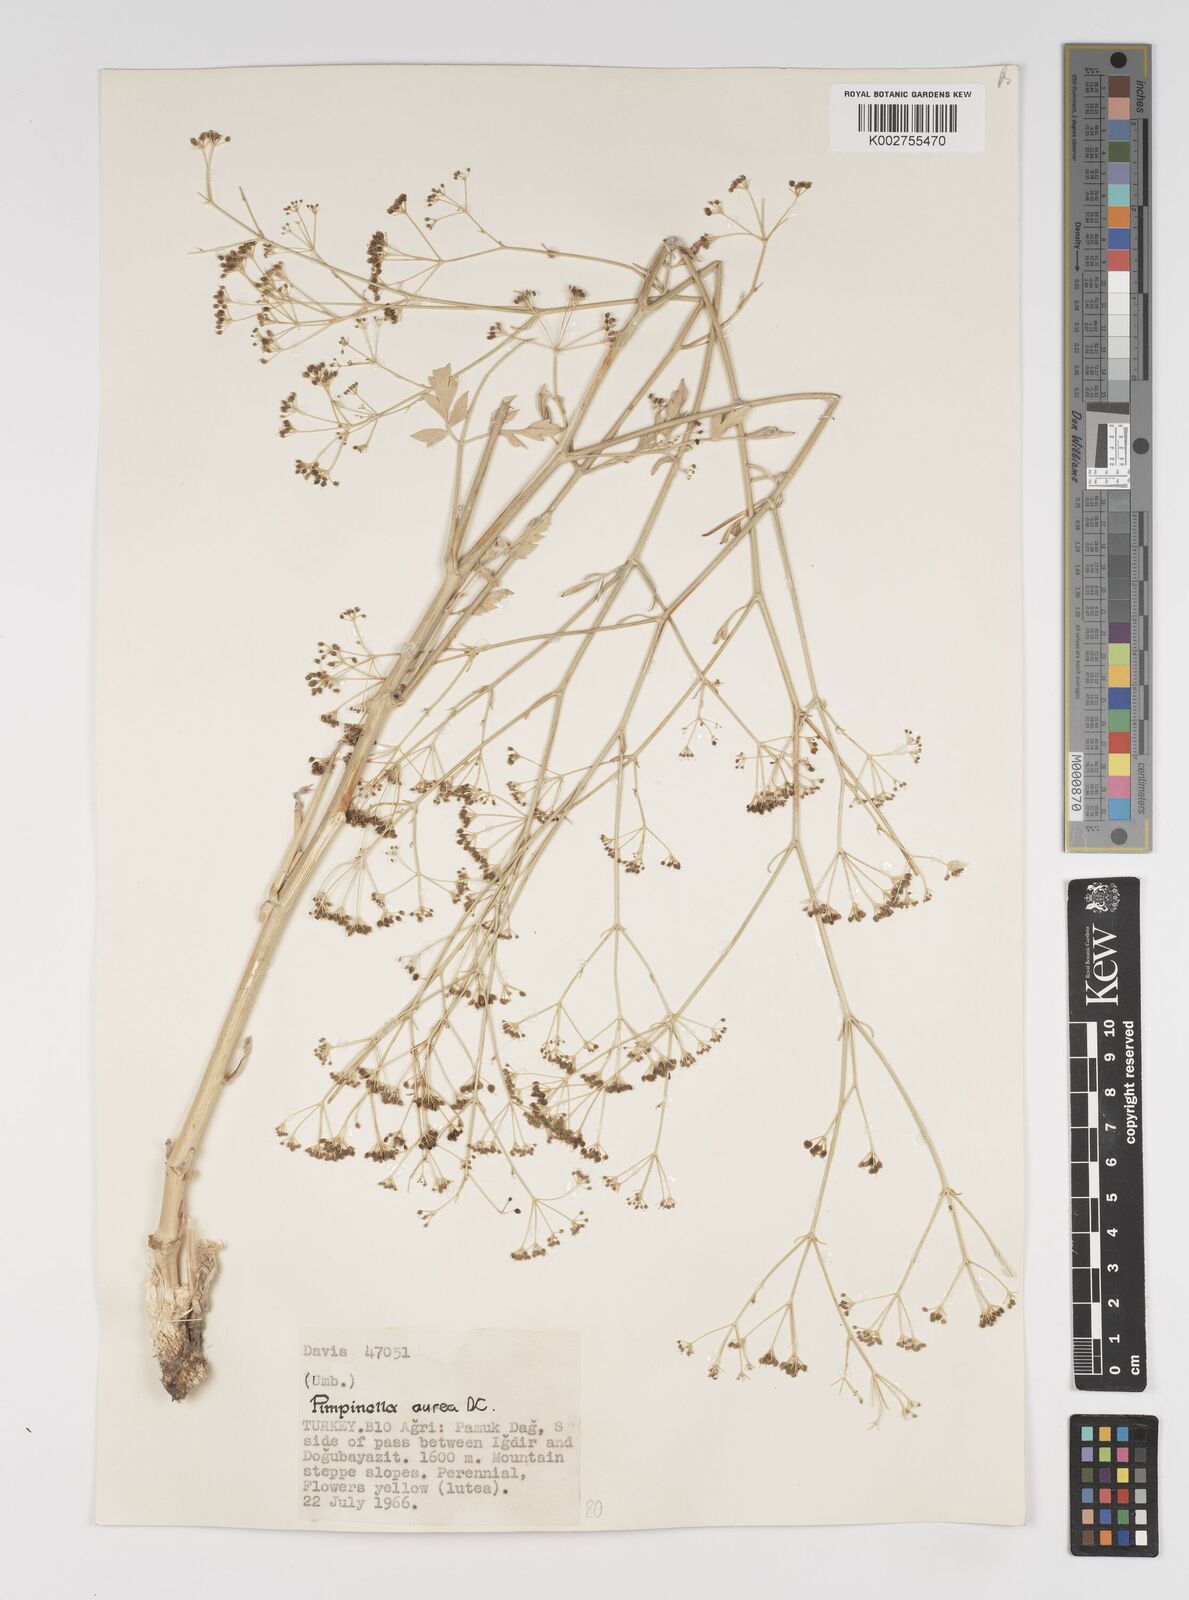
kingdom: Plantae
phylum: Tracheophyta
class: Magnoliopsida
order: Apiales
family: Apiaceae
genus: Pimpinella
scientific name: Pimpinella aurea
